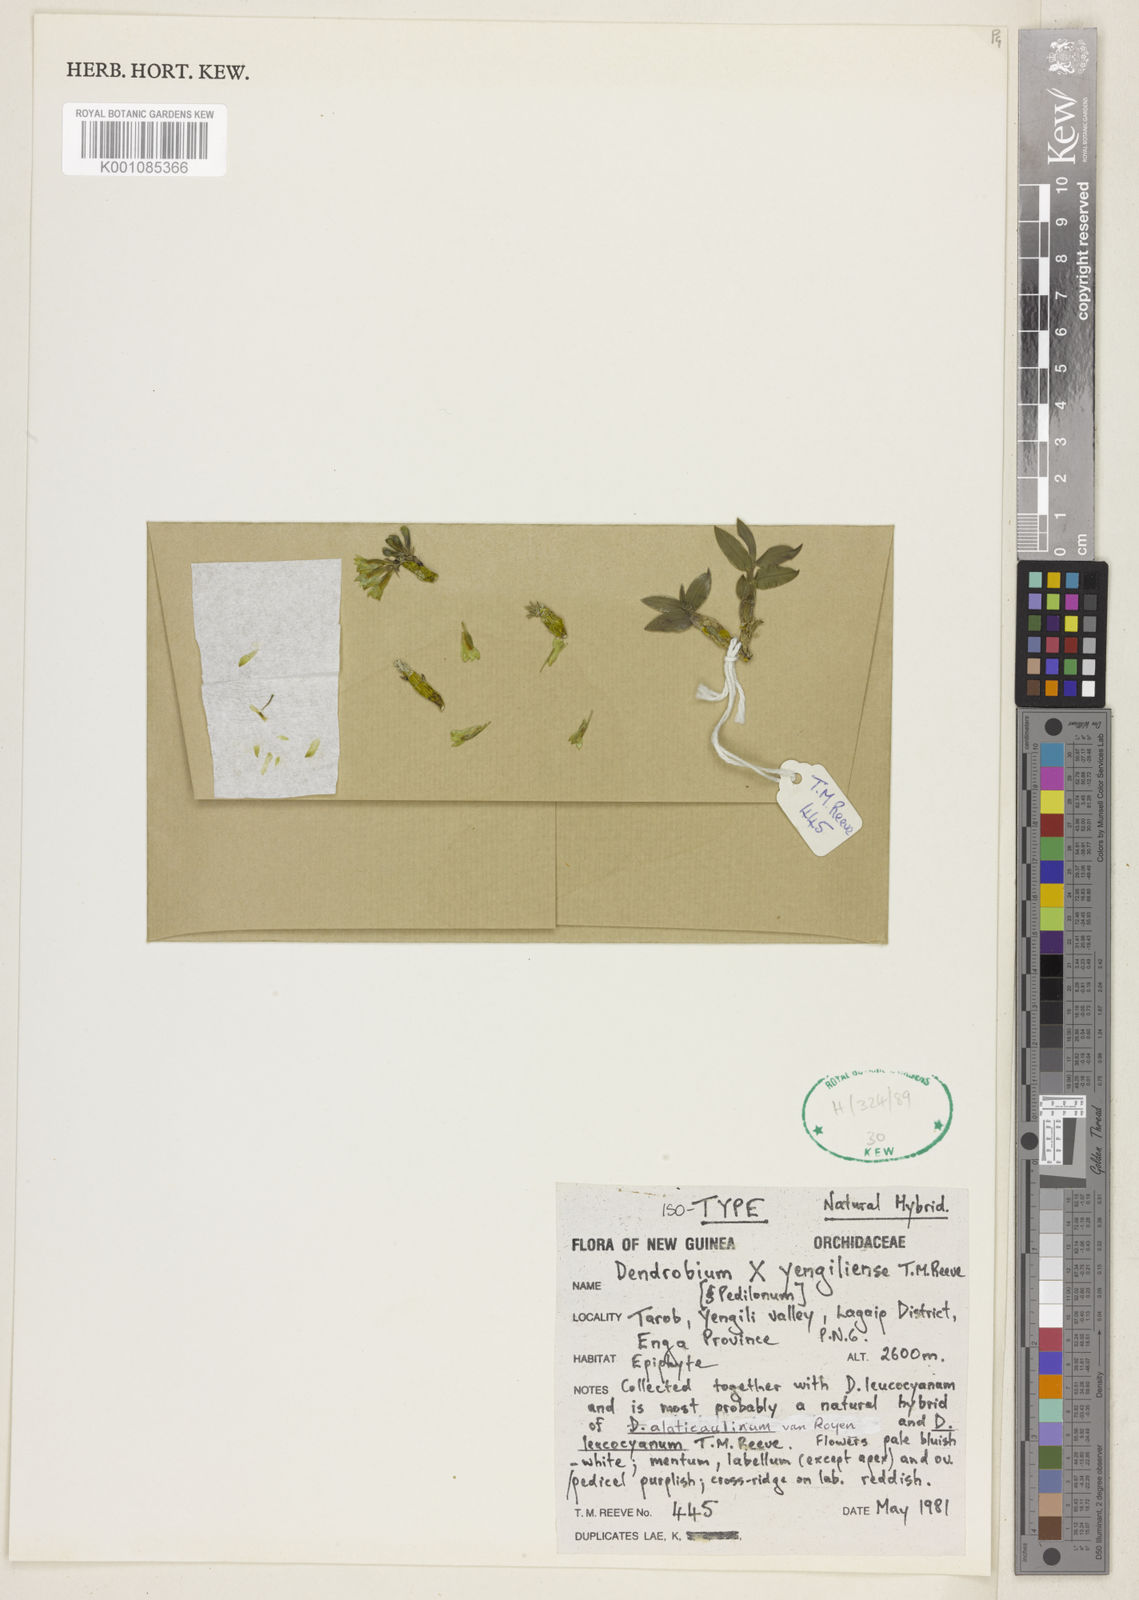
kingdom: Plantae
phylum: Tracheophyta
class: Liliopsida
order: Asparagales
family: Orchidaceae
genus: Dendrobium
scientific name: Dendrobium
